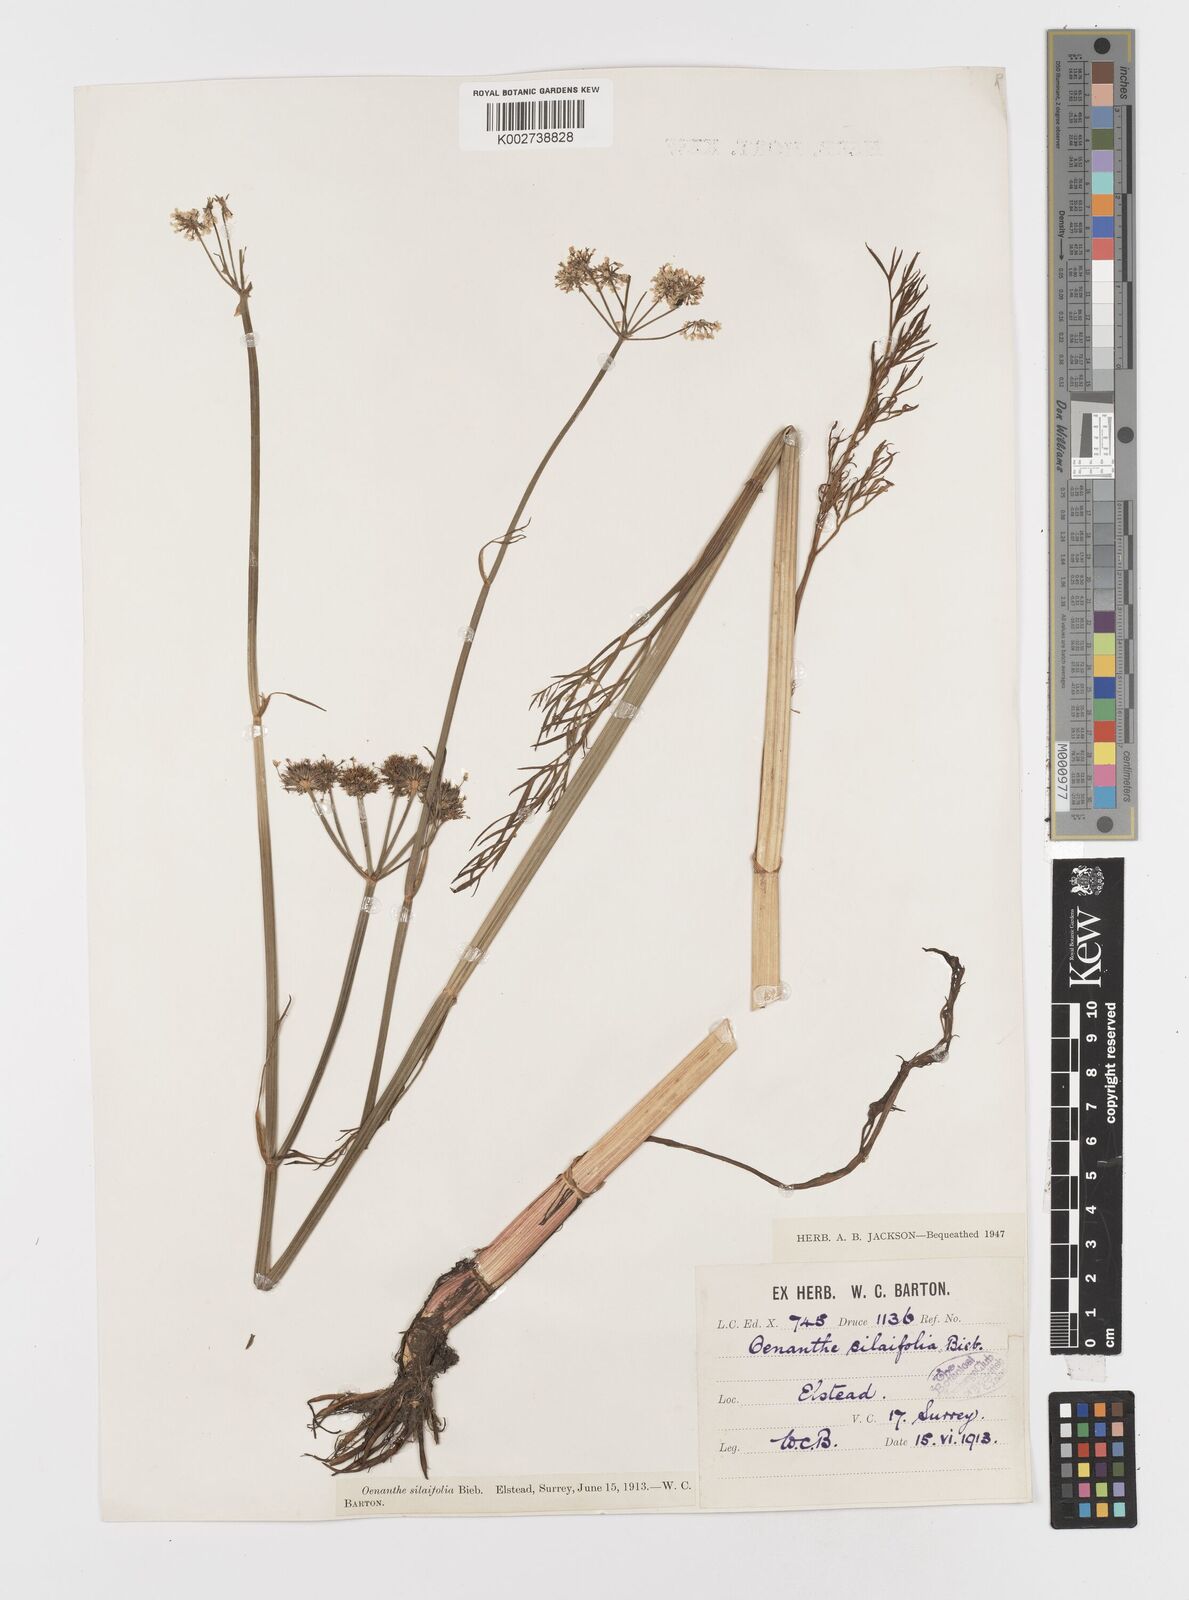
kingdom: Plantae
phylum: Tracheophyta
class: Magnoliopsida
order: Apiales
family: Apiaceae
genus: Oenanthe
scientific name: Oenanthe silaifolia
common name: Narrow-leaved water-dropwort
